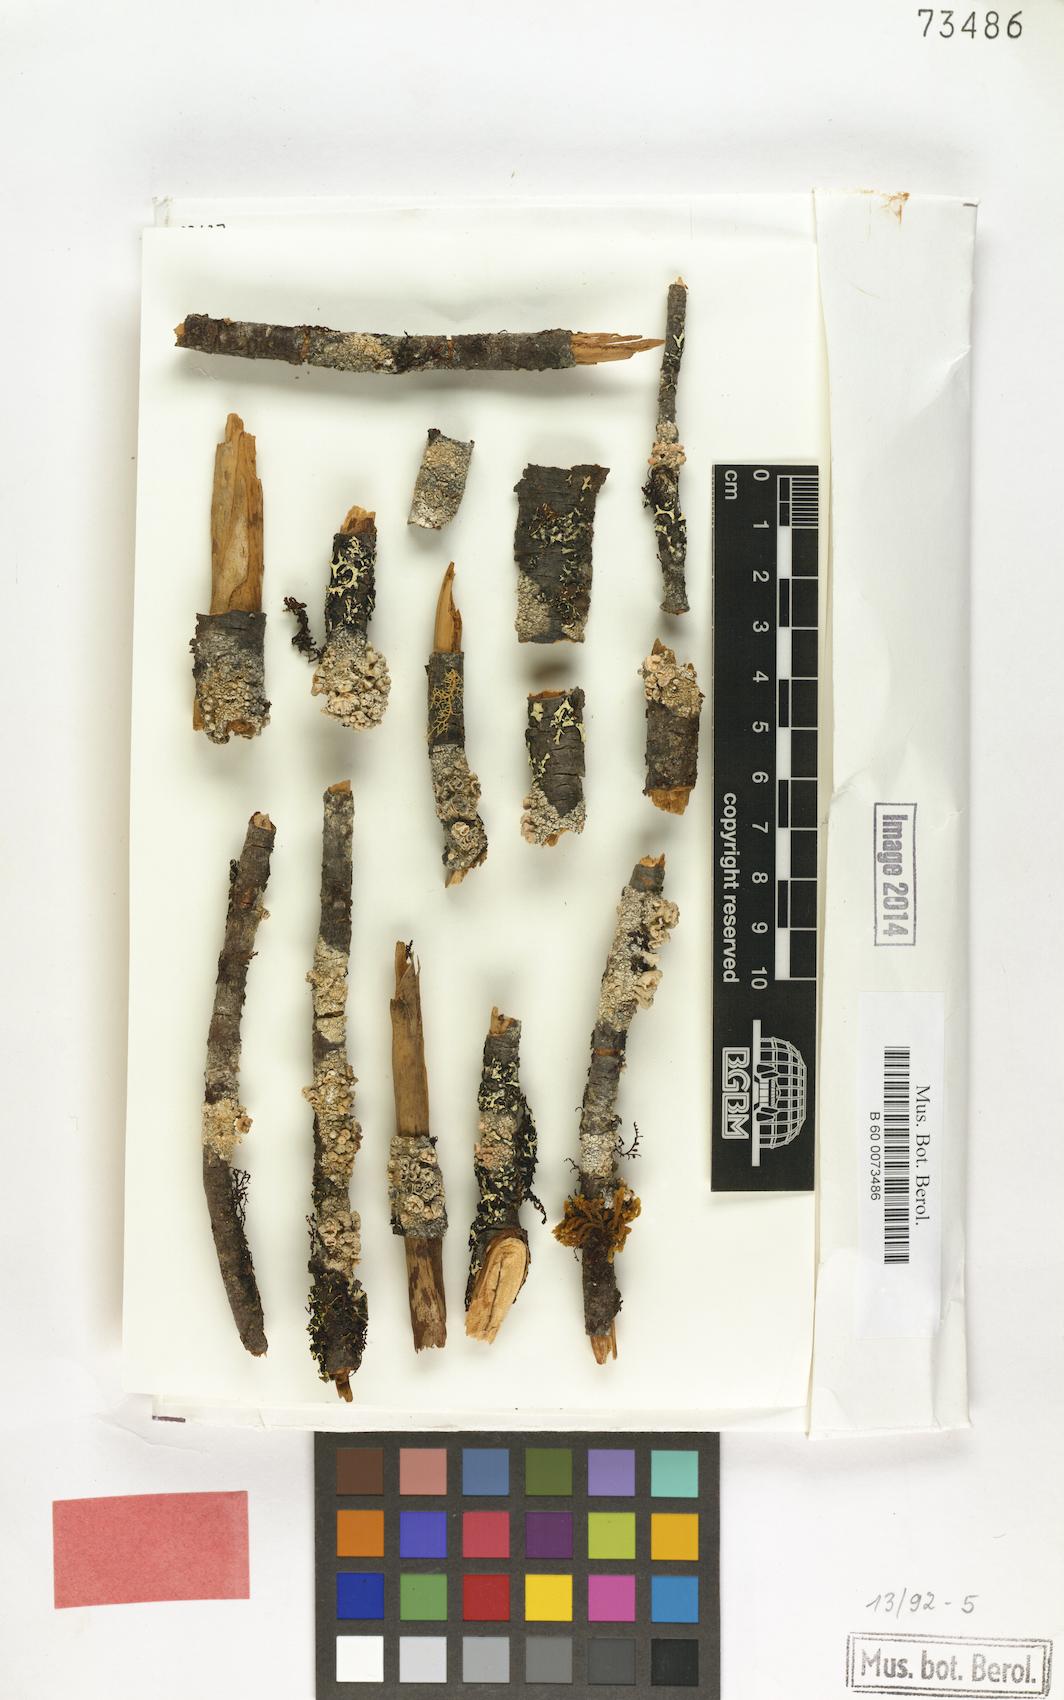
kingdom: Fungi
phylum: Ascomycota
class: Lecanoromycetes
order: Pertusariales
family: Pertusariaceae
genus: Thamnochrolechia
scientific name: Thamnochrolechia verticillata
